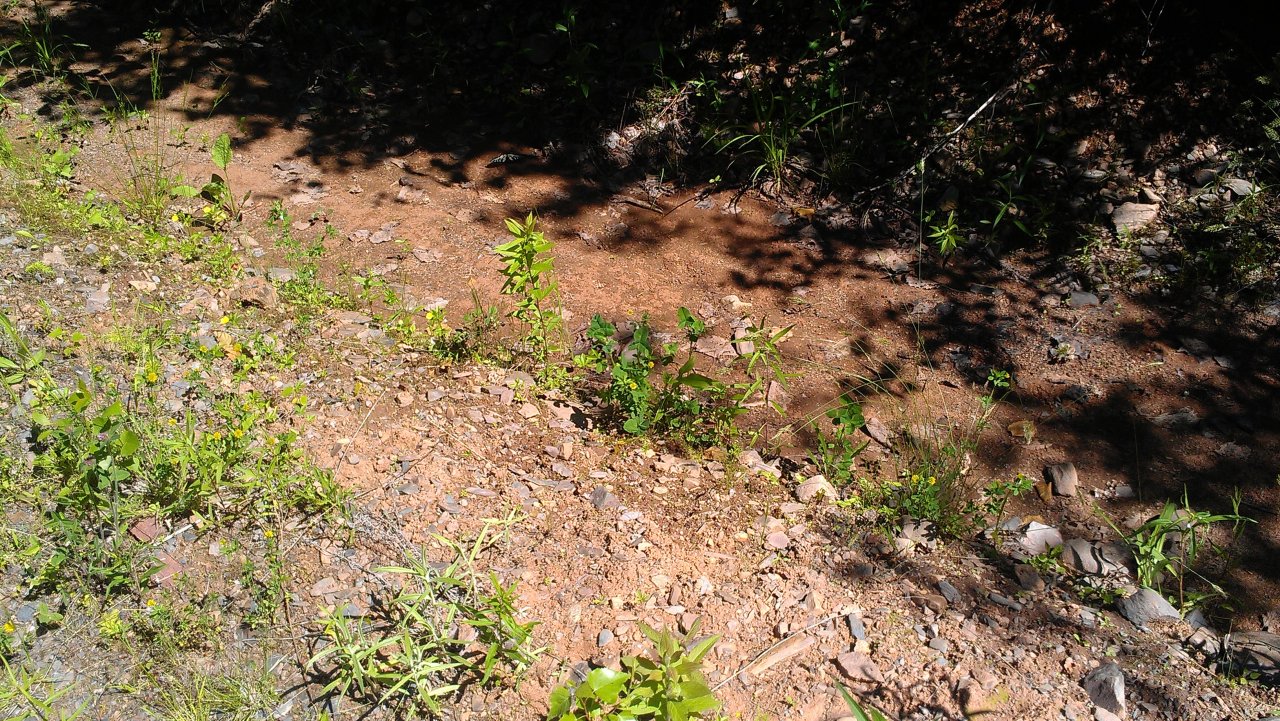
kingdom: Animalia
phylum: Arthropoda
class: Insecta
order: Lepidoptera
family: Papilionidae
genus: Pterourus
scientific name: Pterourus canadensis
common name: Canadian Tiger Swallowtail
